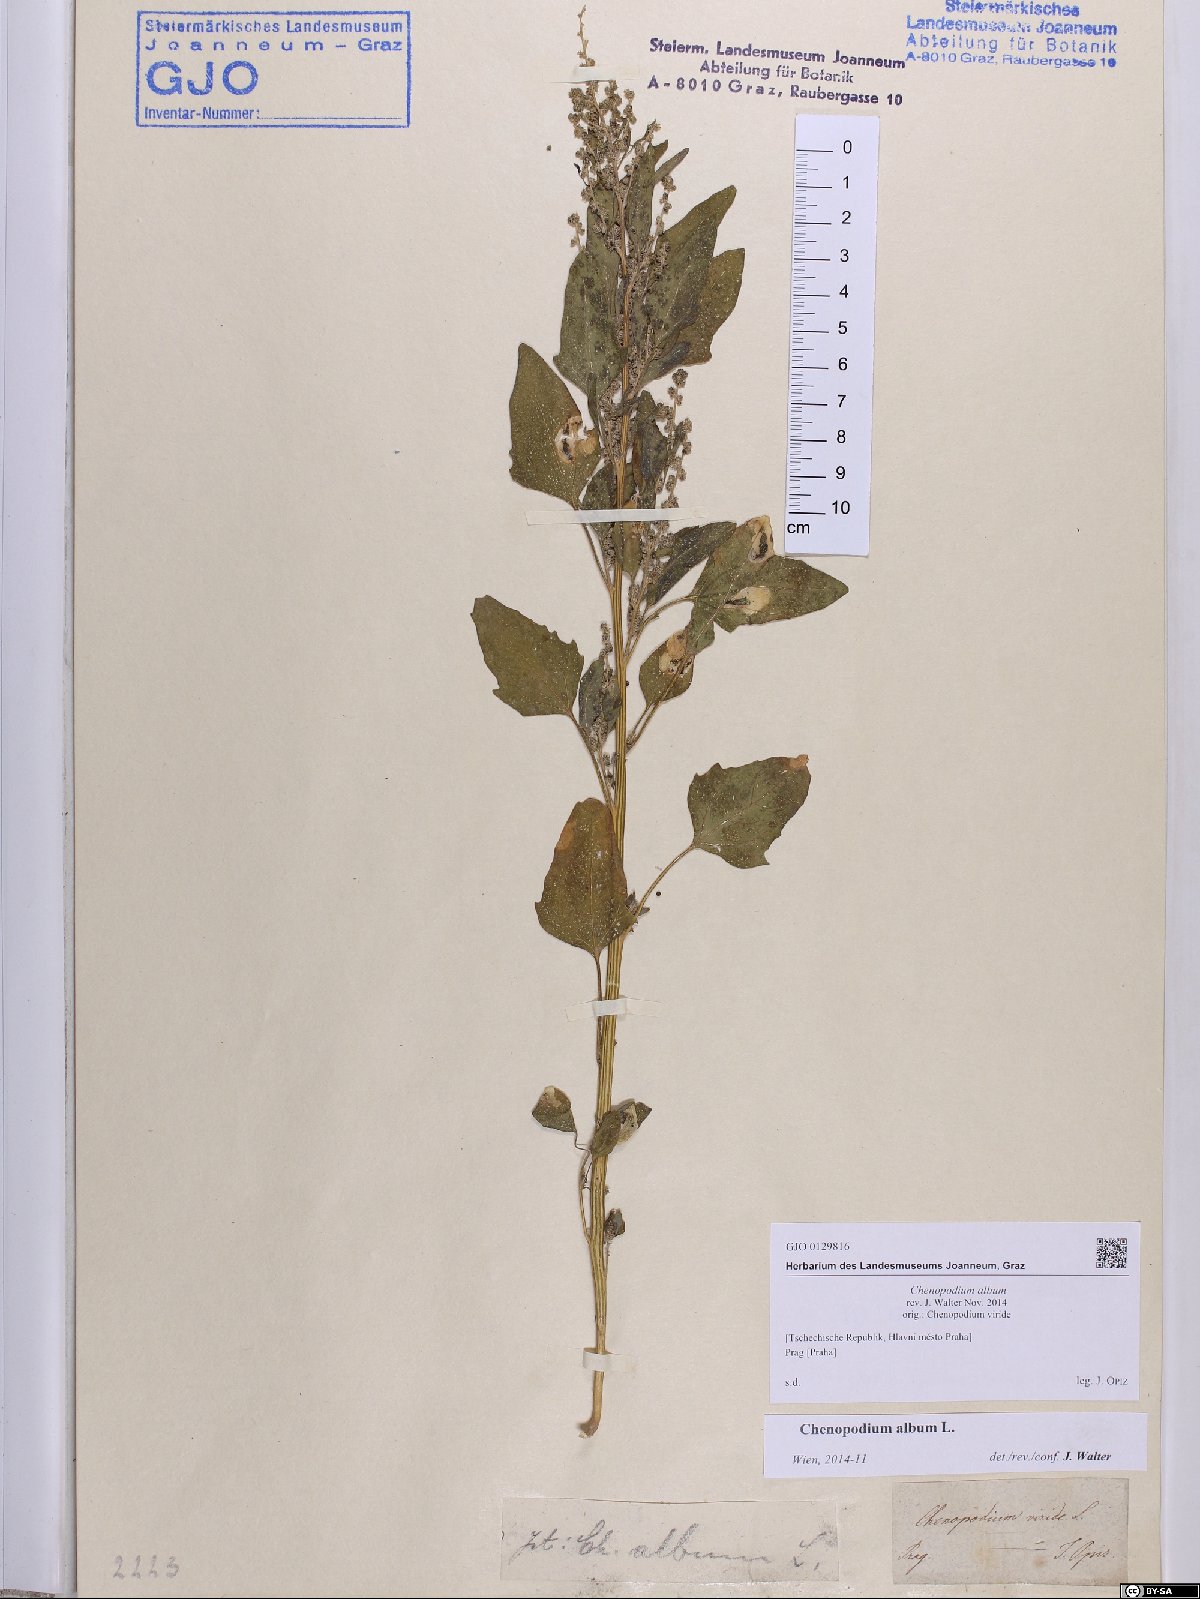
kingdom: Plantae
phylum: Tracheophyta
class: Magnoliopsida
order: Caryophyllales
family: Amaranthaceae
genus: Chenopodium
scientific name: Chenopodium album
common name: Fat-hen
